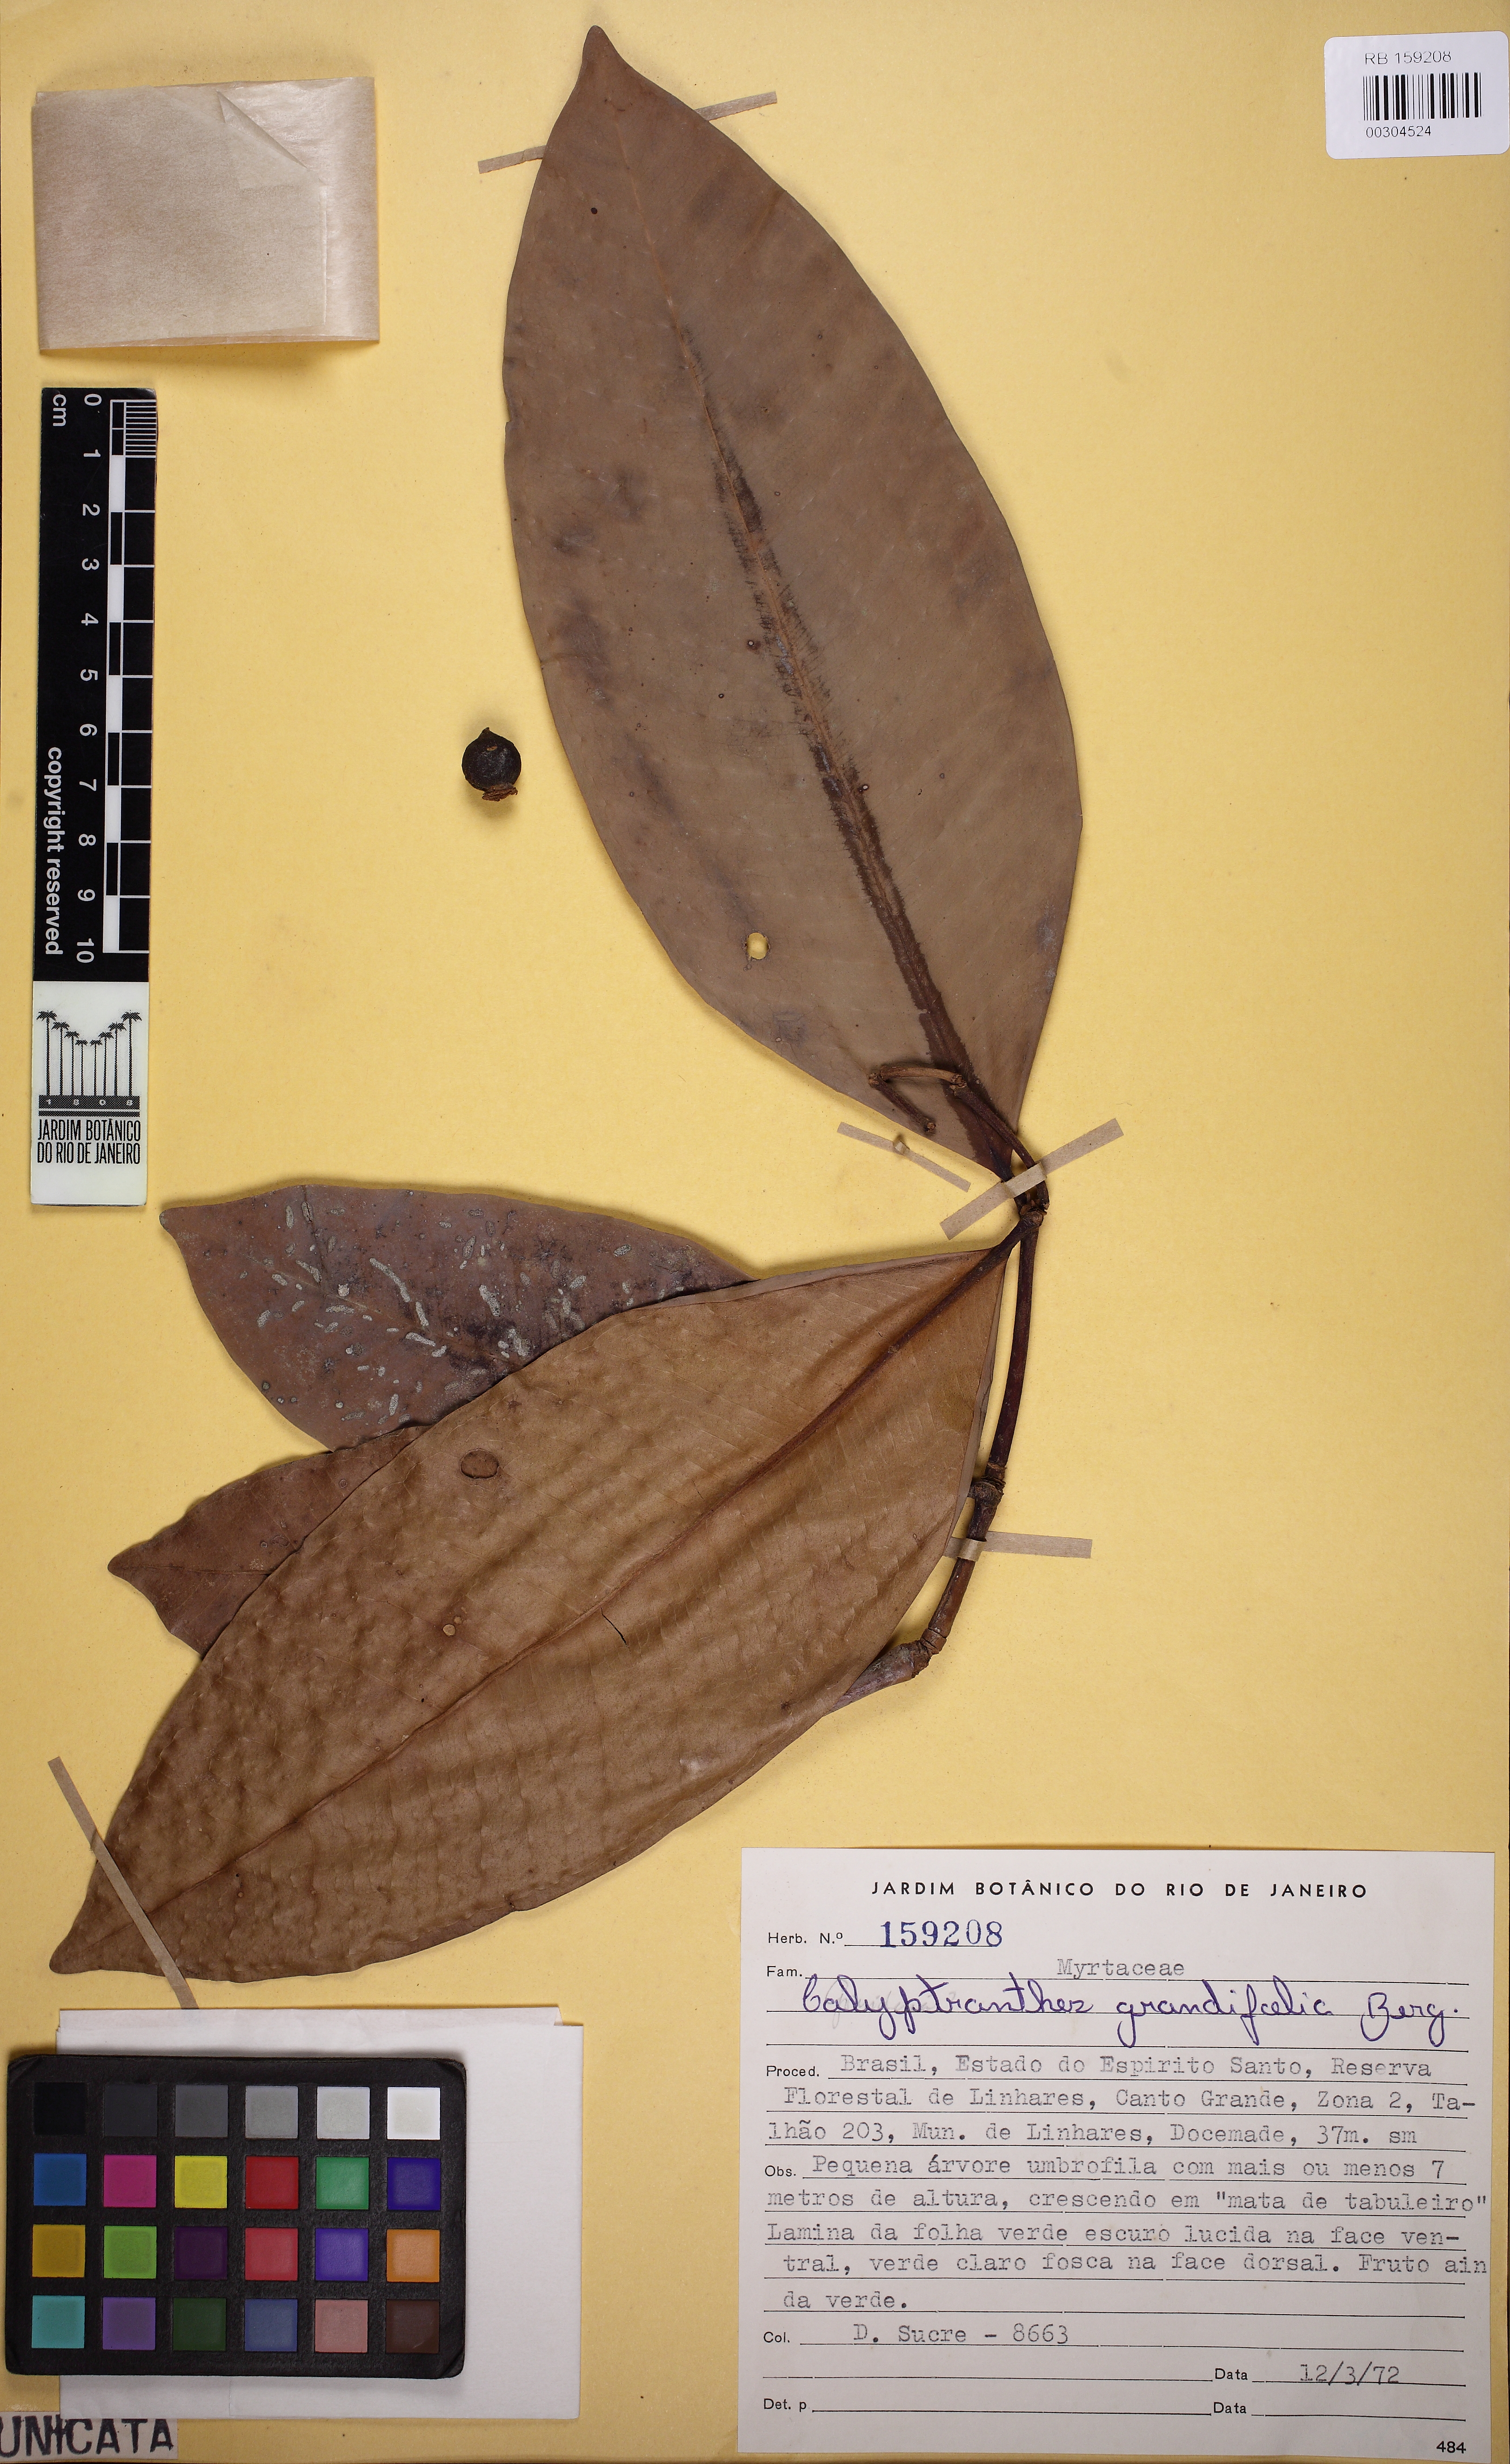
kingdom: Plantae
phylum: Tracheophyta
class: Magnoliopsida
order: Myrtales
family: Myrtaceae
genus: Calyptranthes
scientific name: Calyptranthes grandifolia
